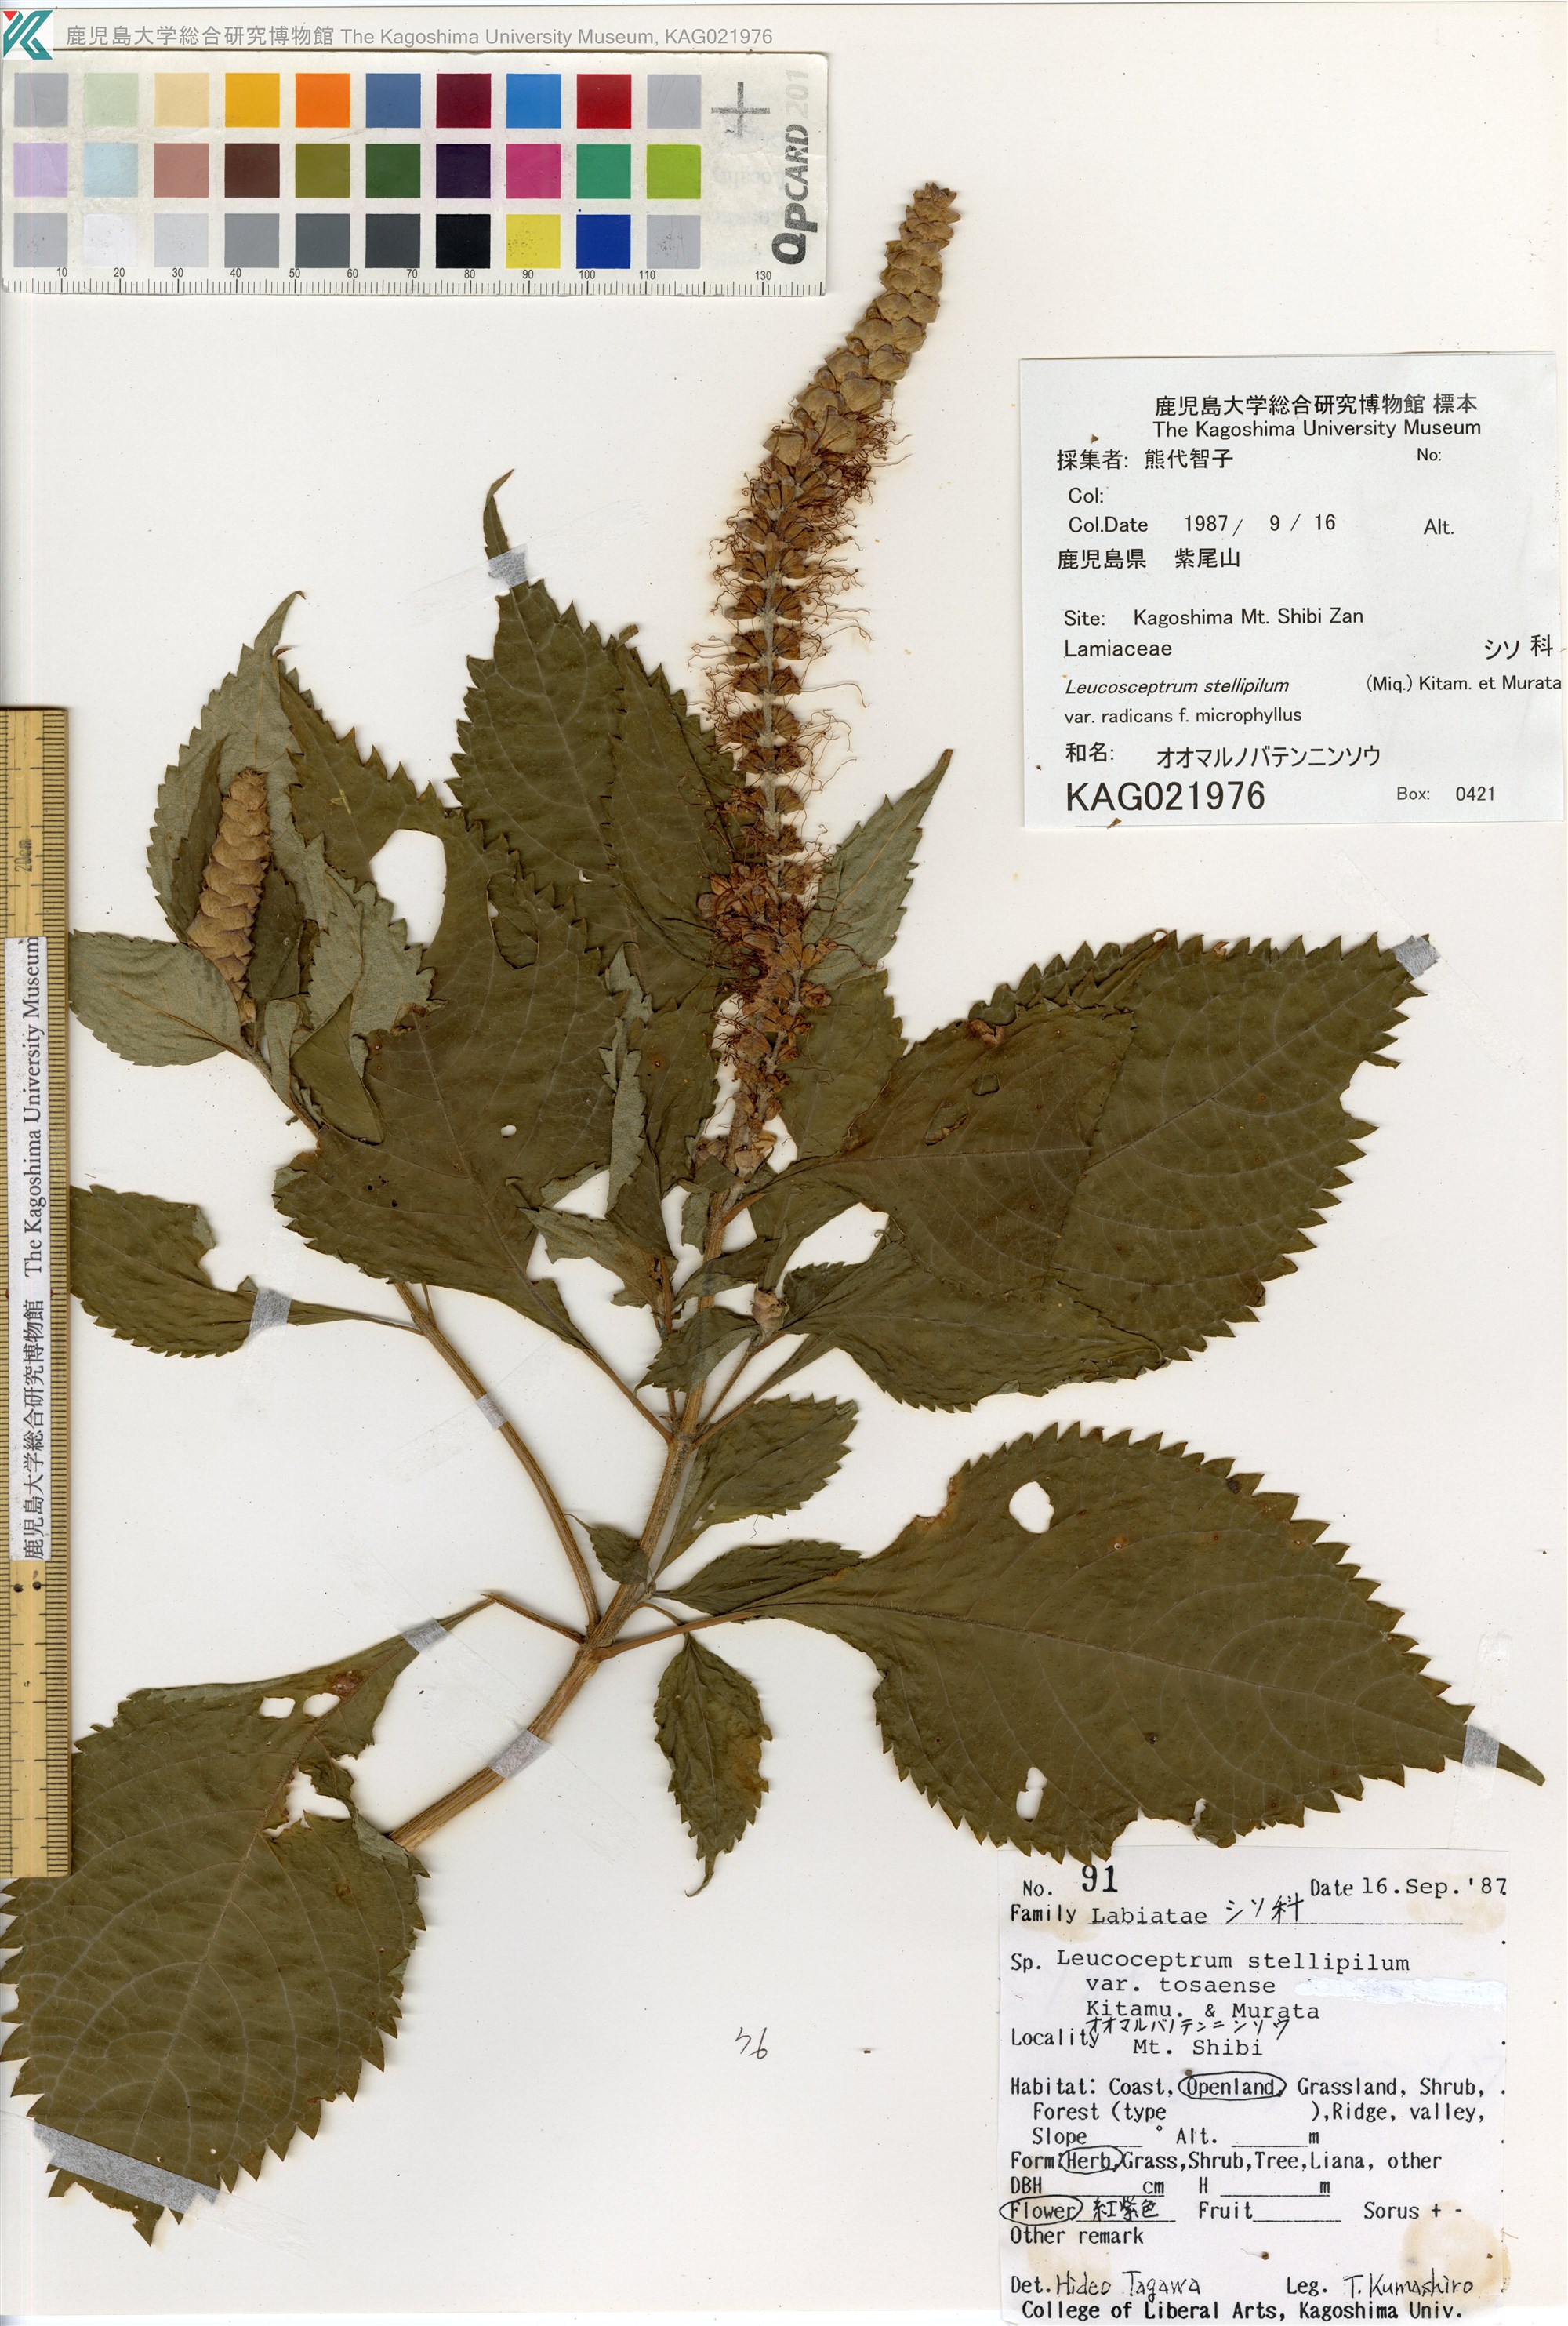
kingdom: Plantae
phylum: Tracheophyta
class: Magnoliopsida
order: Lamiales
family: Lamiaceae
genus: Comanthosphace
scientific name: Comanthosphace japonica
